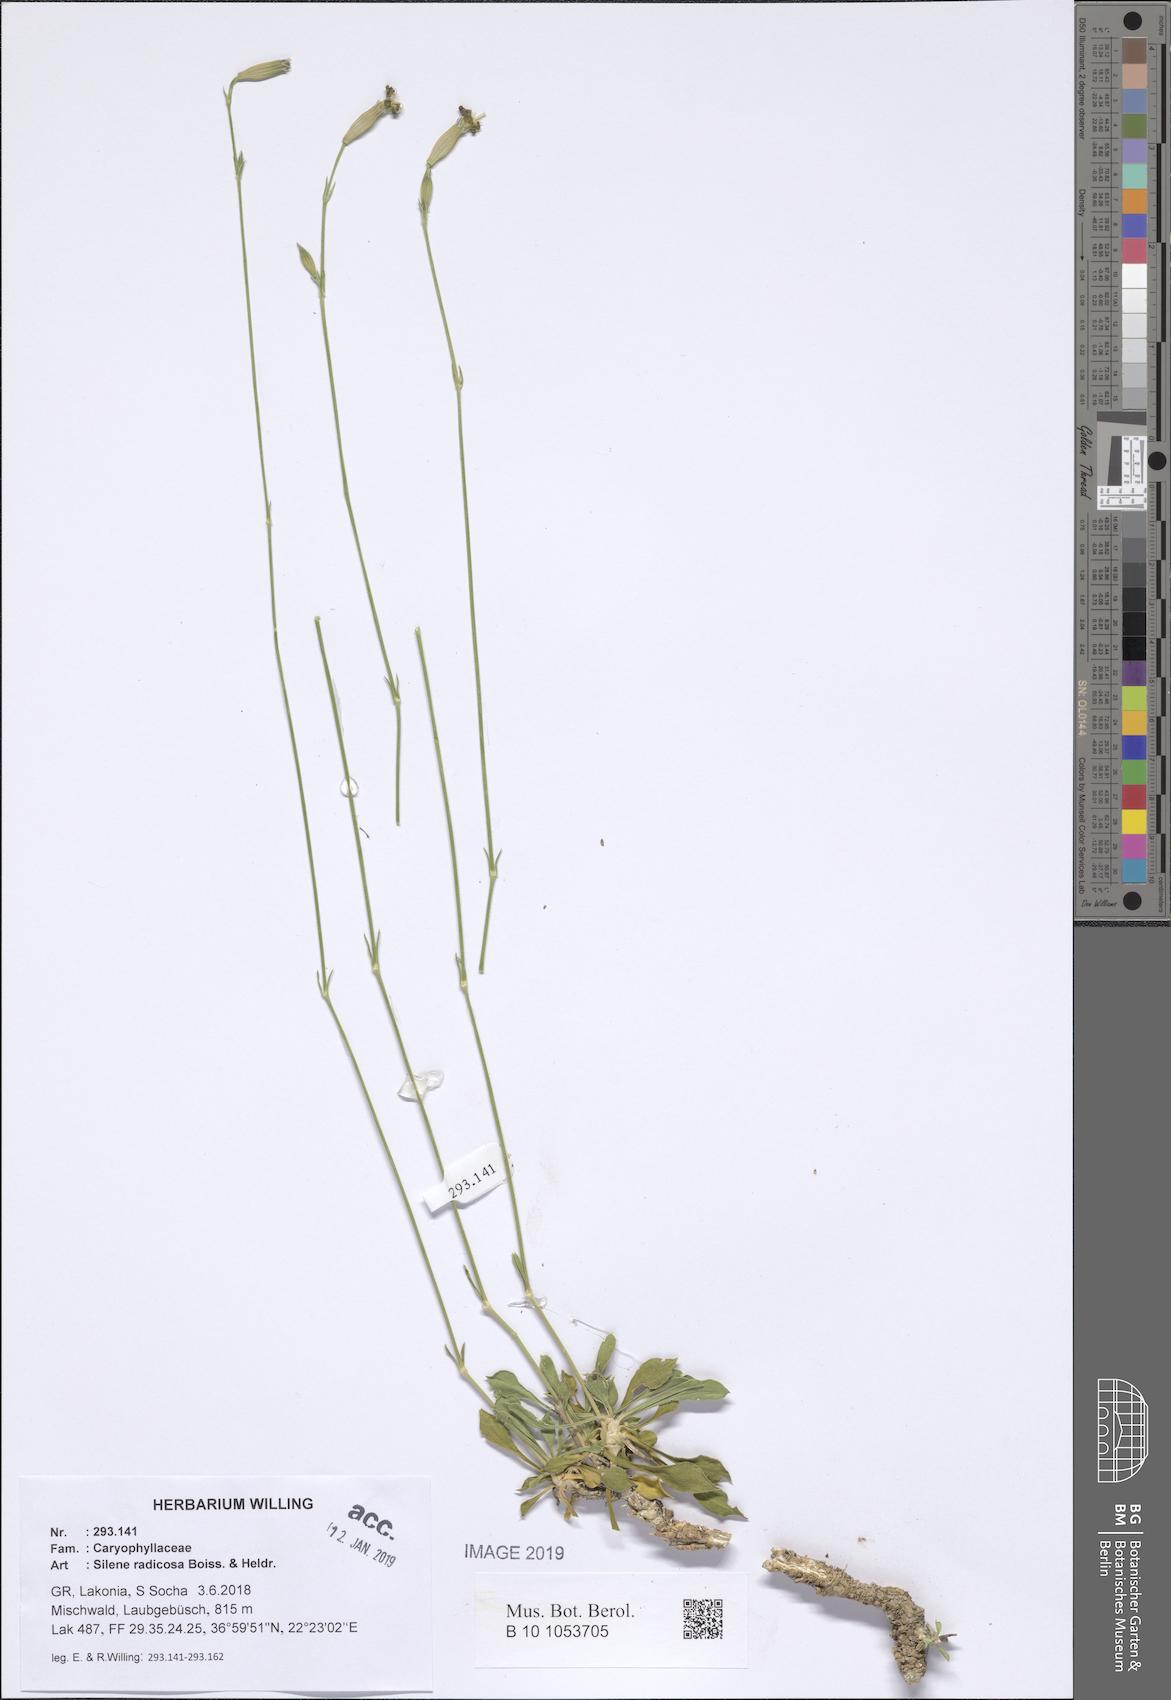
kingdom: Plantae
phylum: Tracheophyta
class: Magnoliopsida
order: Caryophyllales
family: Caryophyllaceae
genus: Silene
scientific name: Silene radicosa
